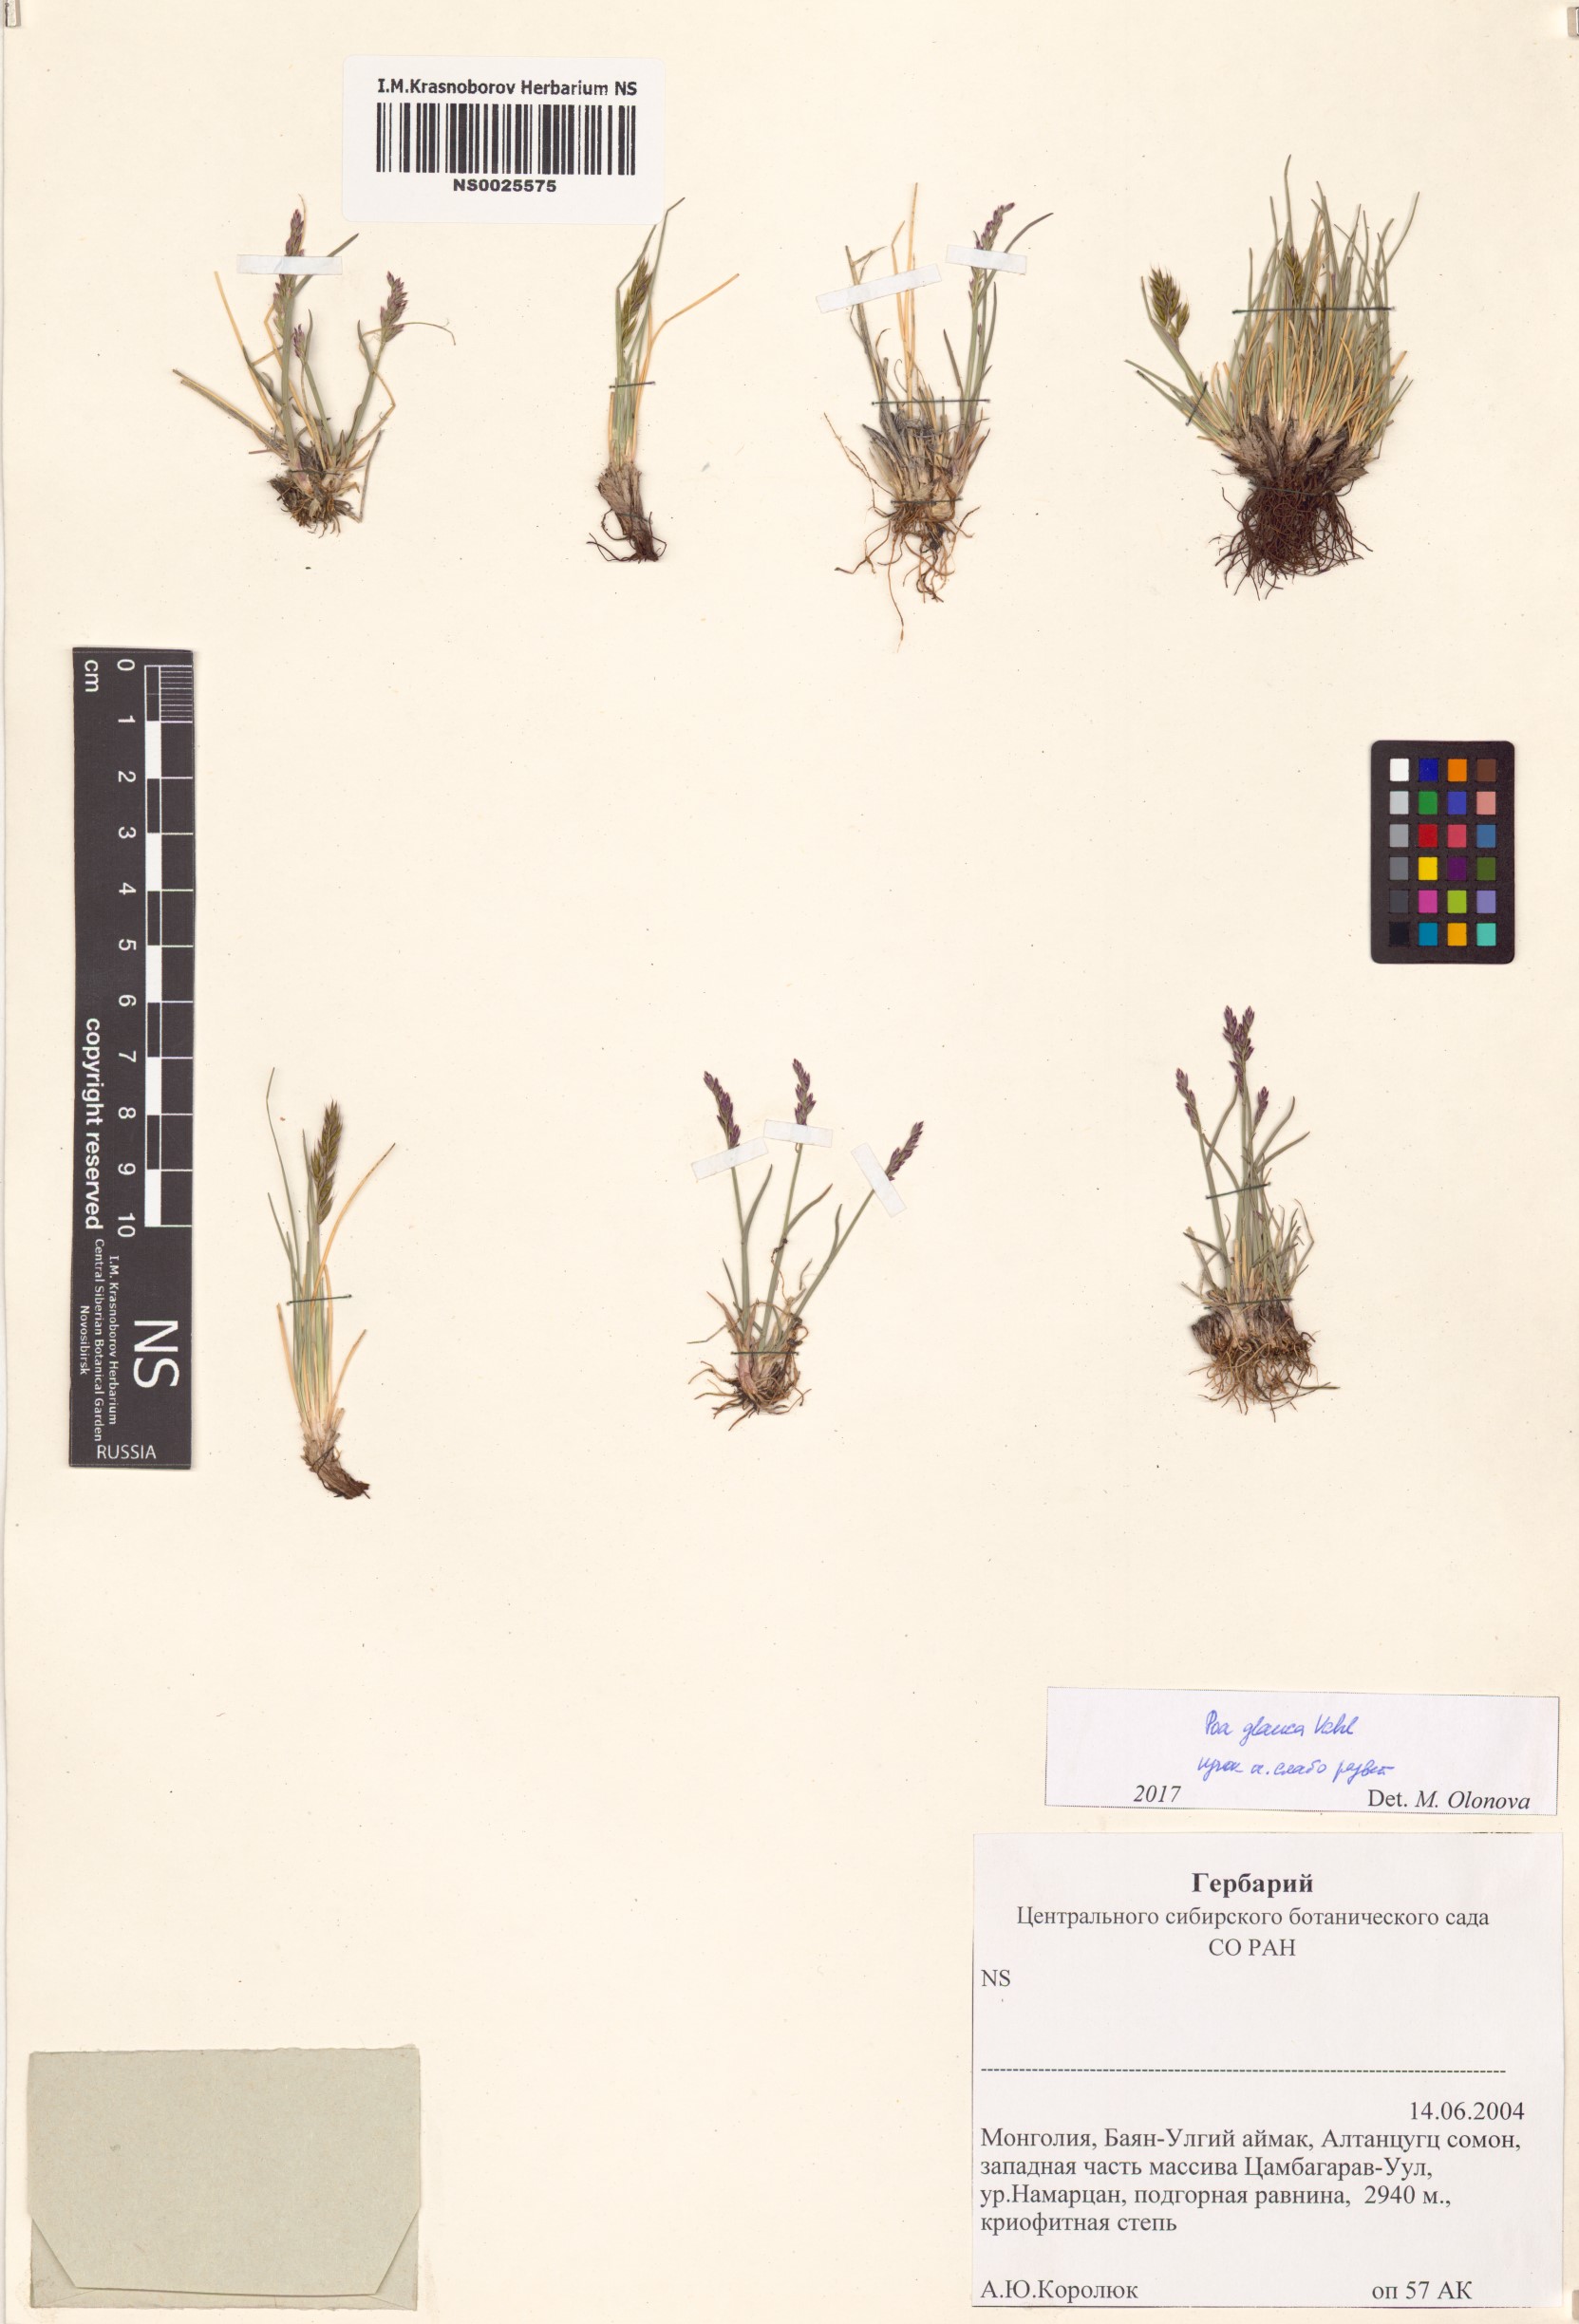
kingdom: Plantae
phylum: Tracheophyta
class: Liliopsida
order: Poales
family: Poaceae
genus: Poa
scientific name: Poa glauca
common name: Glaucous bluegrass
